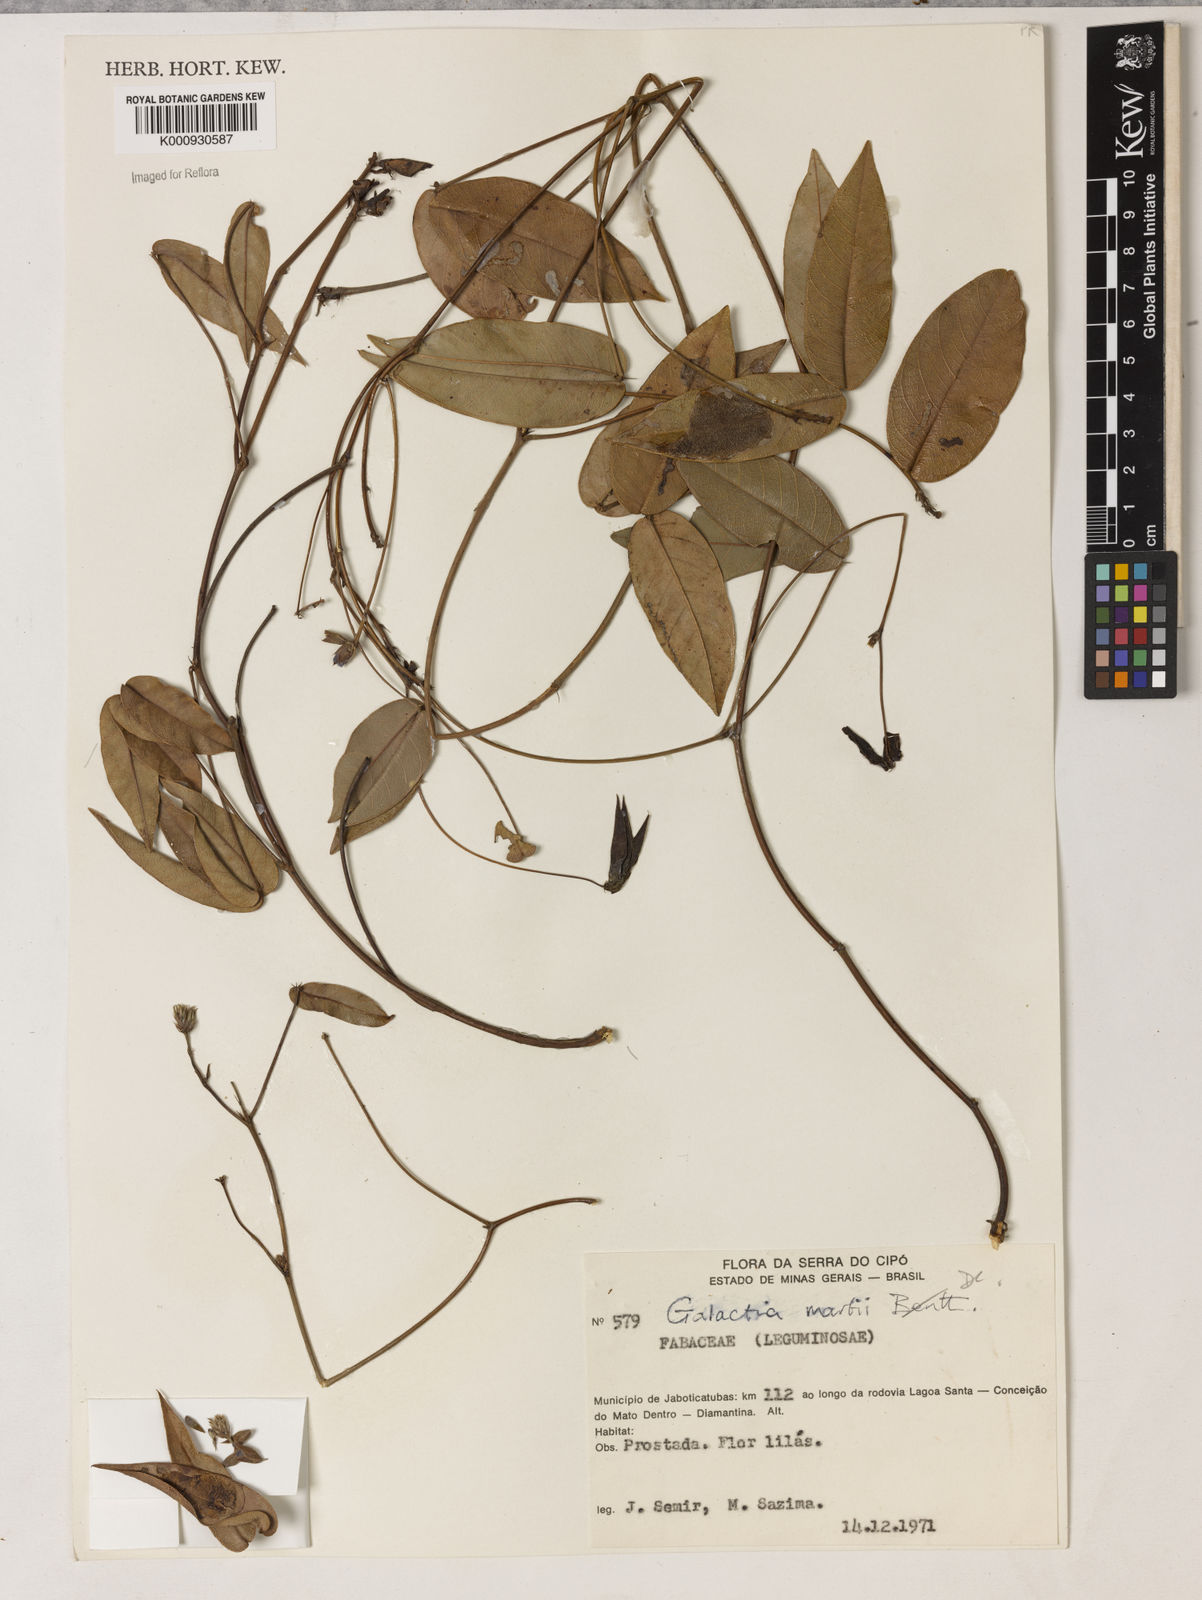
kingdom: Plantae
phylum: Tracheophyta
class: Magnoliopsida
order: Fabales
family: Fabaceae
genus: Betencourtia
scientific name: Betencourtia neesii
